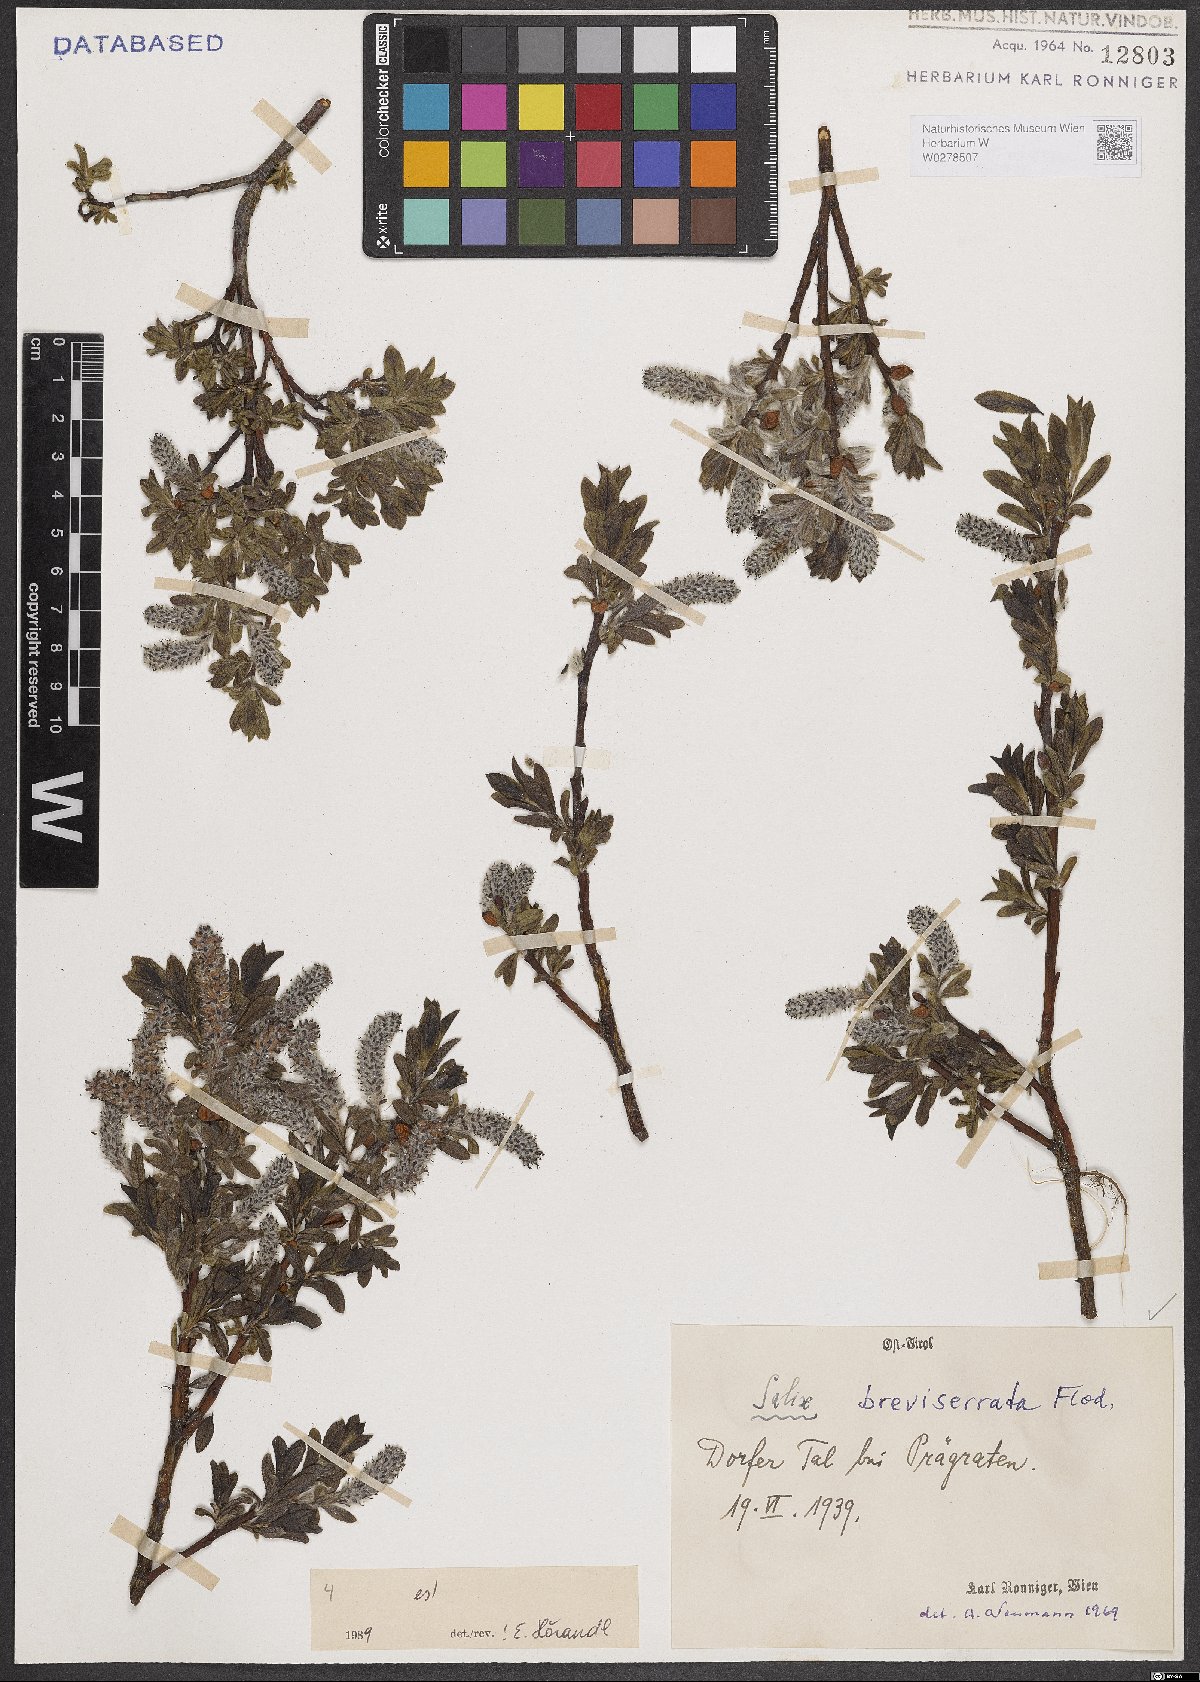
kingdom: Plantae
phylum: Tracheophyta
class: Magnoliopsida
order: Malpighiales
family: Salicaceae
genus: Salix
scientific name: Salix breviserrata
